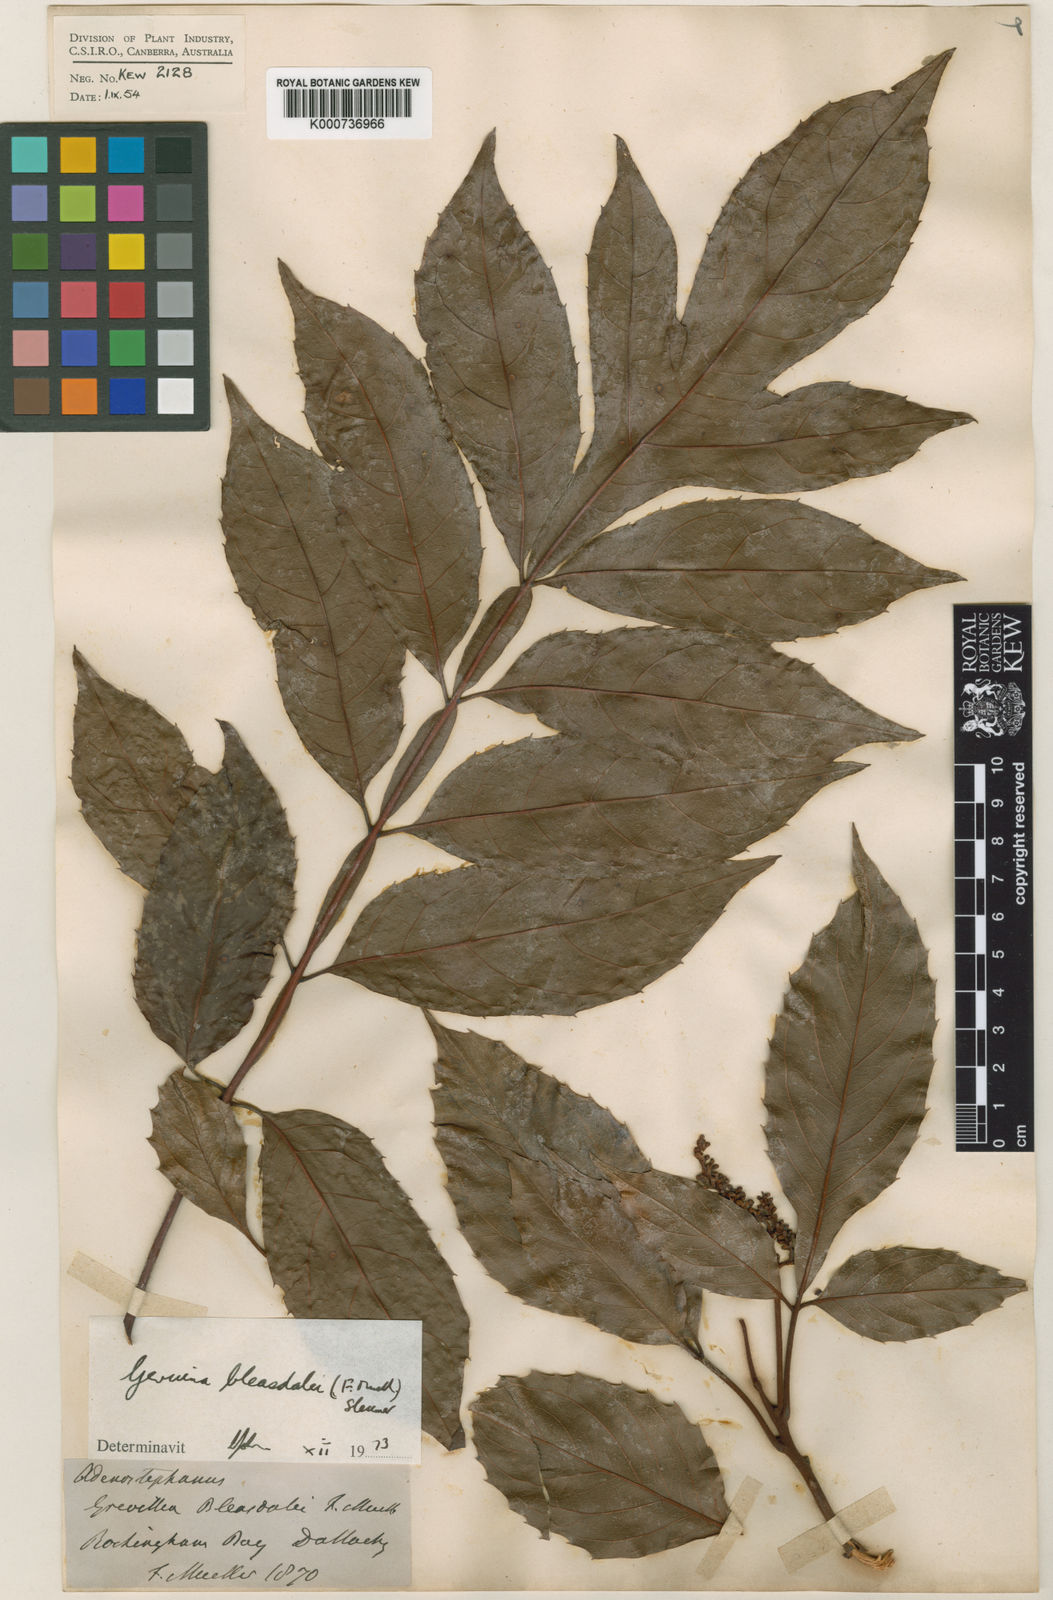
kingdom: Plantae
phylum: Tracheophyta
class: Magnoliopsida
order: Proteales
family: Proteaceae
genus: Gevuina
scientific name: Gevuina bleasdalei
